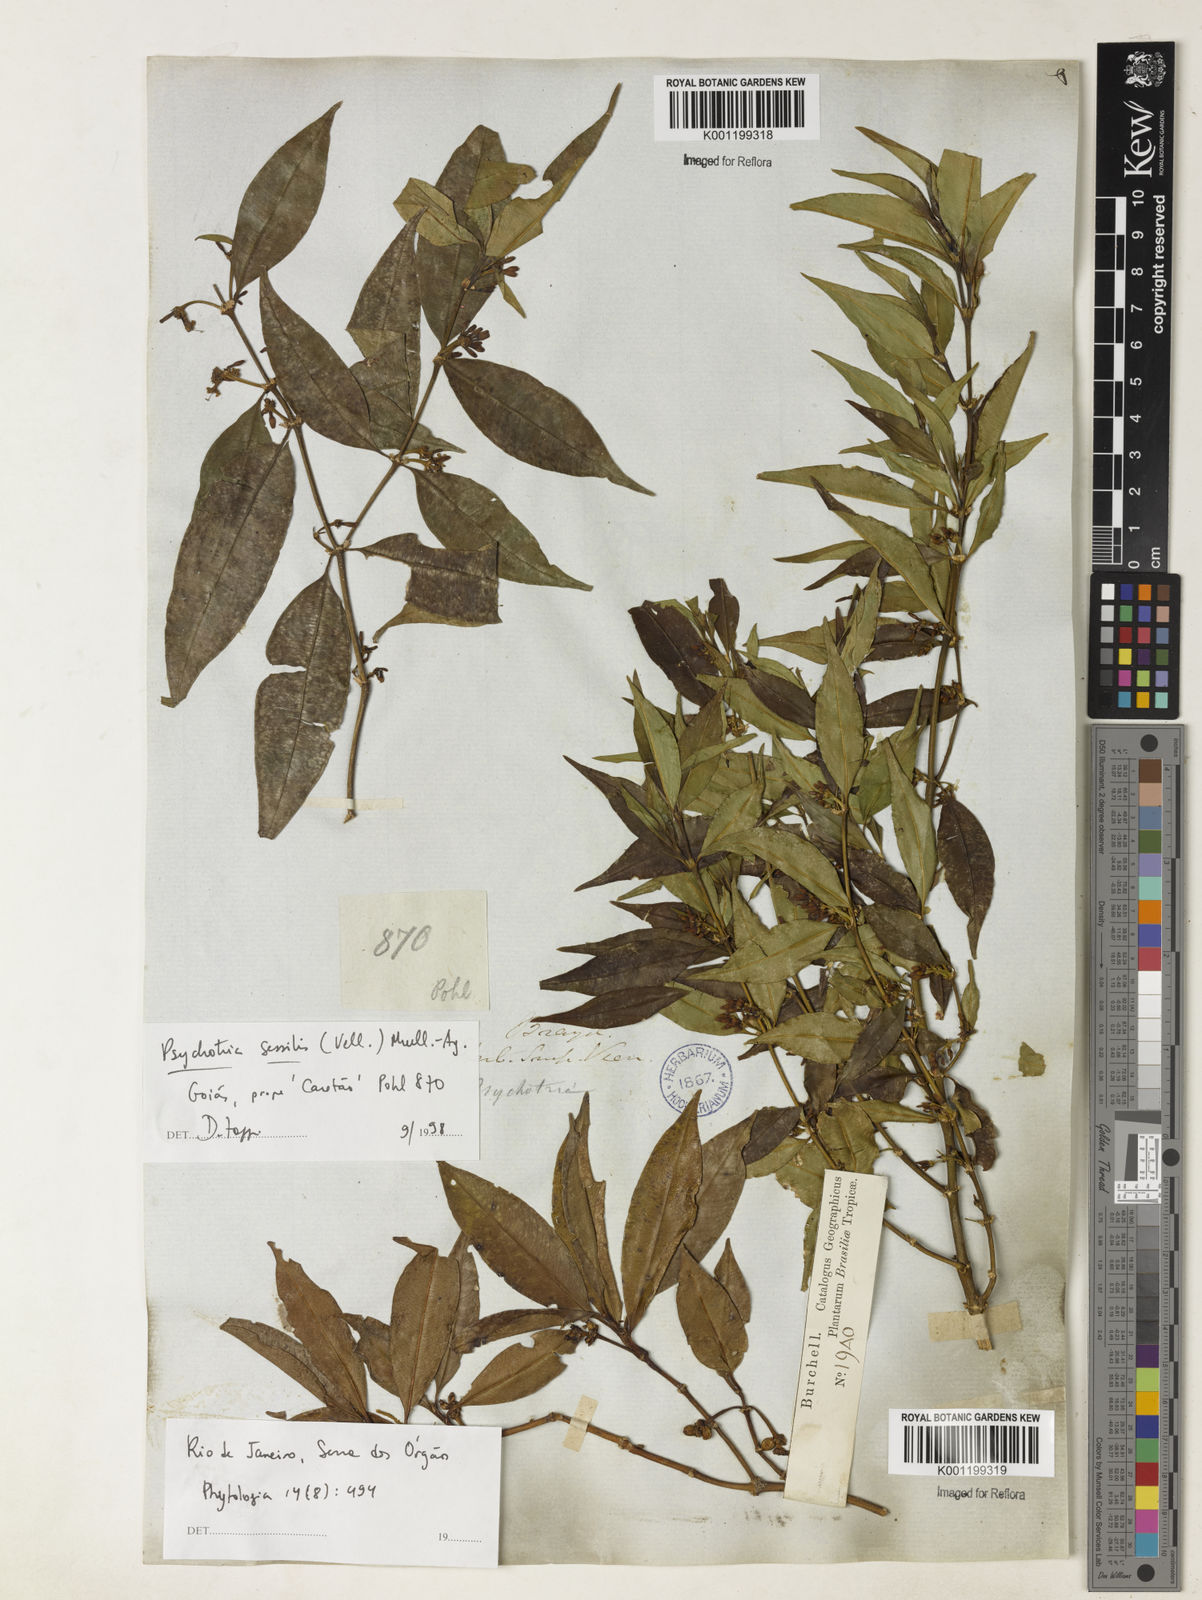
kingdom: Plantae
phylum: Tracheophyta
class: Magnoliopsida
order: Gentianales
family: Rubiaceae
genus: Rudgea
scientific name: Rudgea sessilis
